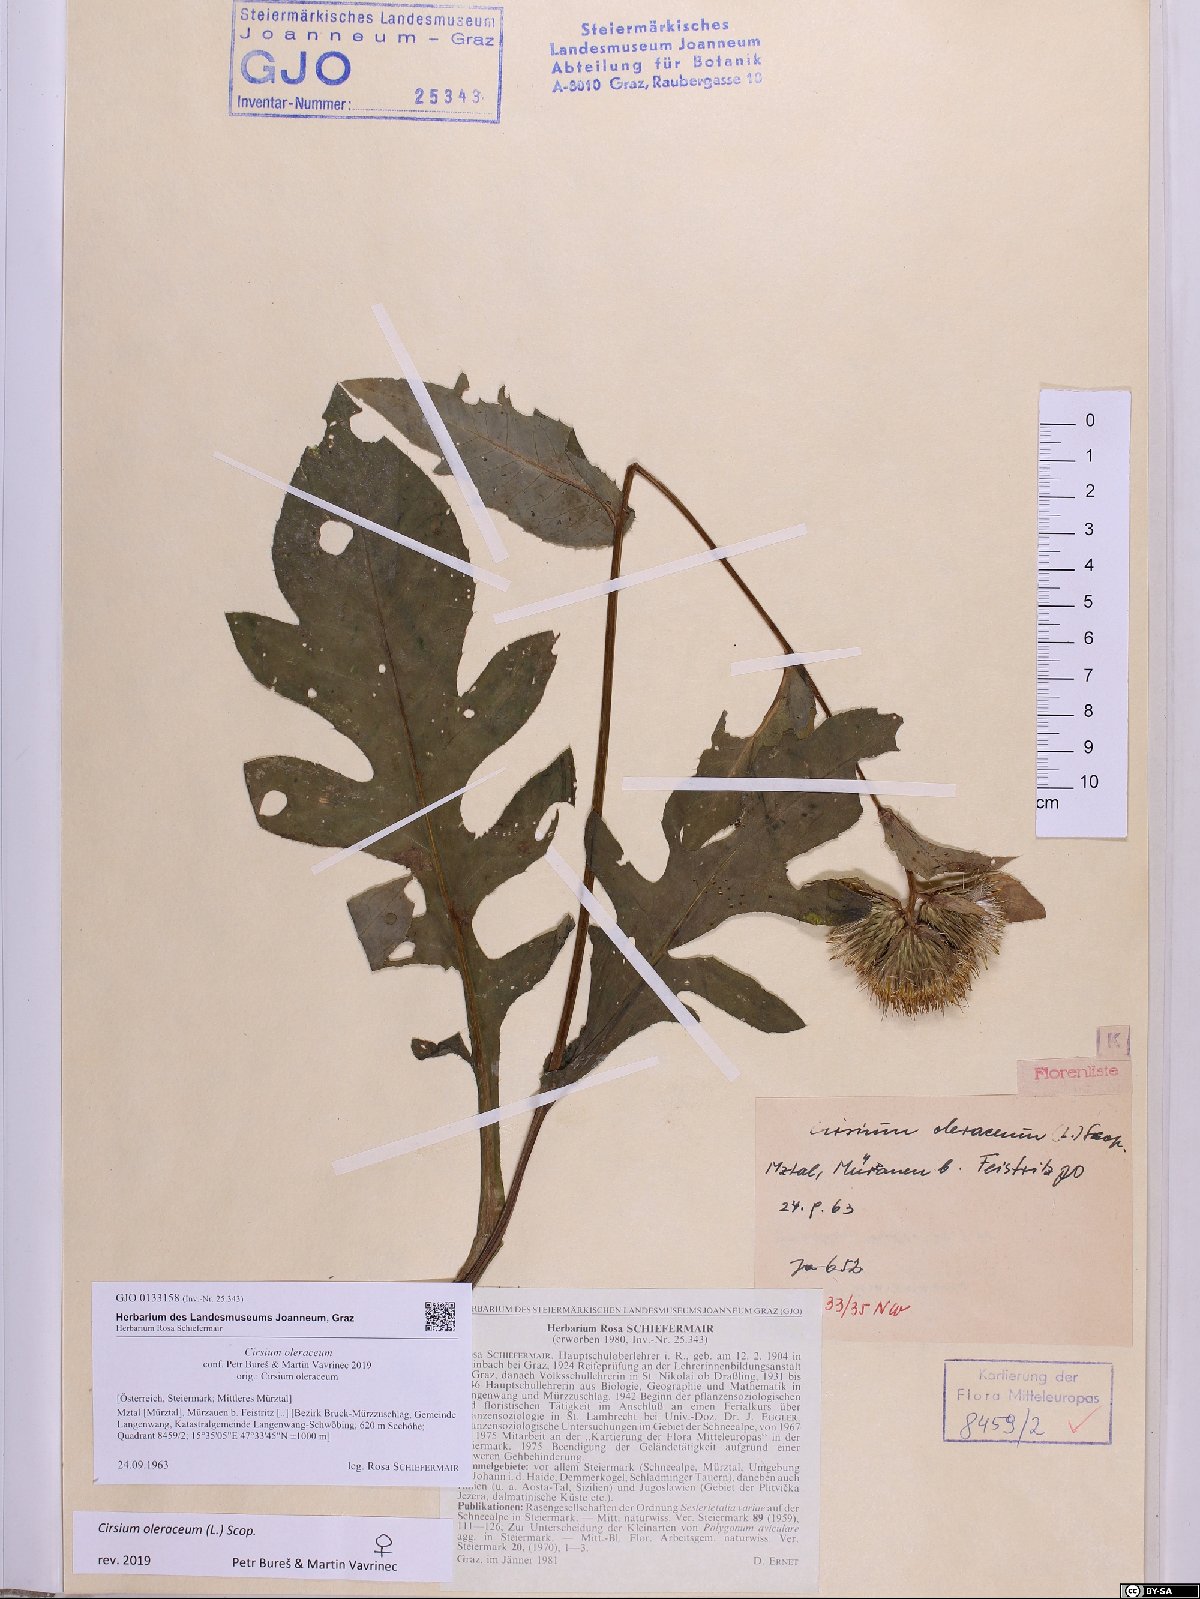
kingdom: Plantae
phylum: Tracheophyta
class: Magnoliopsida
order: Asterales
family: Asteraceae
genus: Cirsium
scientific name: Cirsium oleraceum
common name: Cabbage thistle
